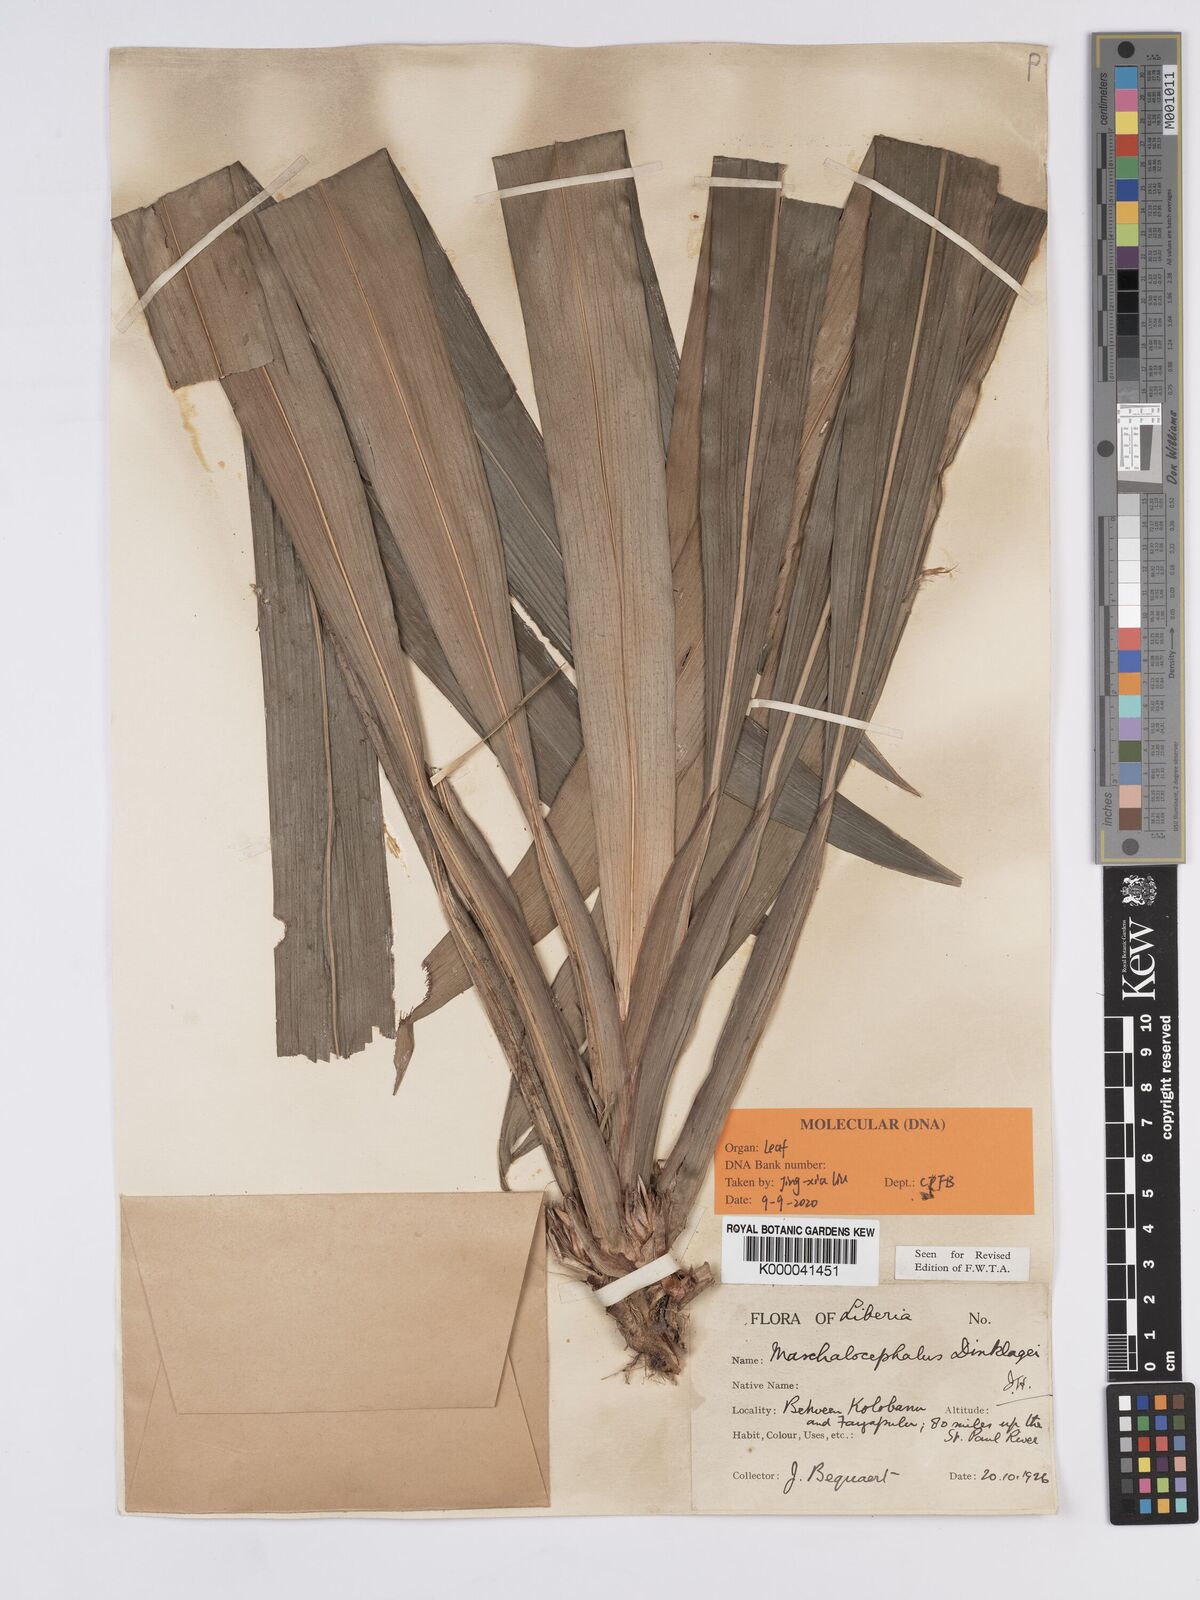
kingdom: Plantae
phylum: Tracheophyta
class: Liliopsida
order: Poales
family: Rapateaceae
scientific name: Rapateaceae
